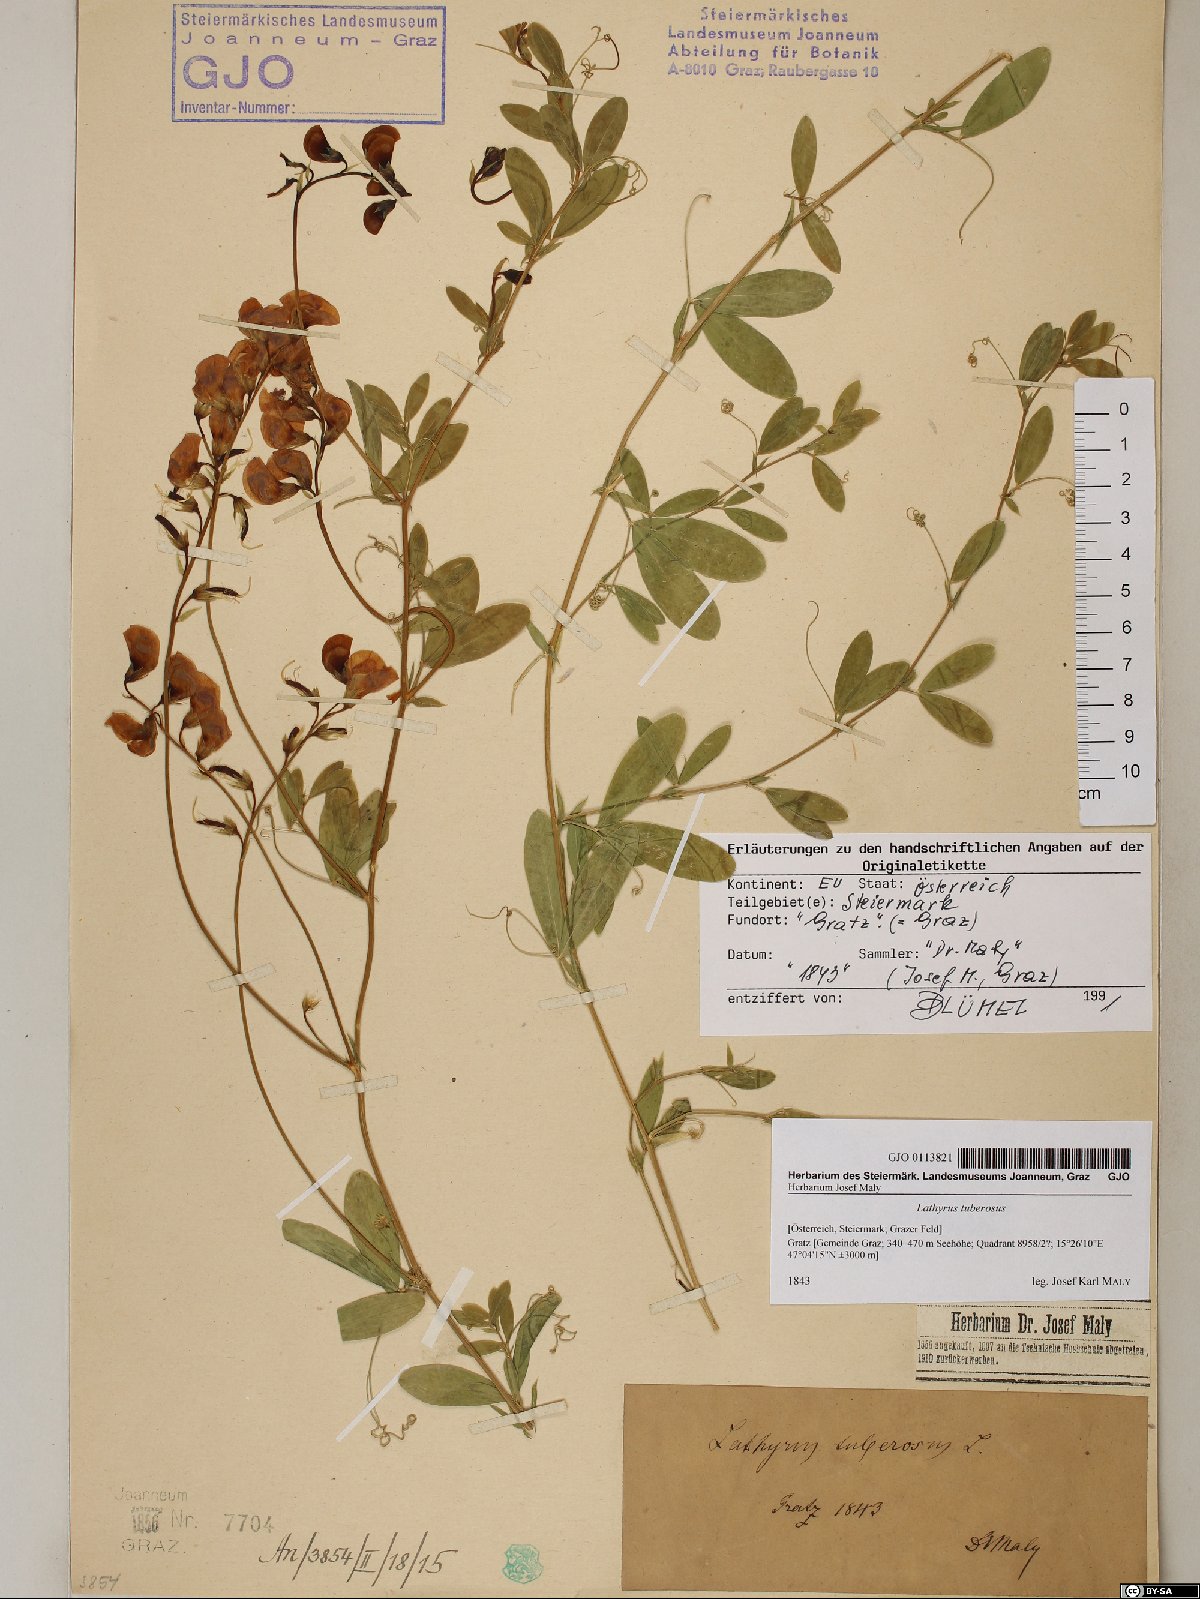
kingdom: Plantae
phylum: Tracheophyta
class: Magnoliopsida
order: Fabales
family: Fabaceae
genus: Lathyrus
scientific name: Lathyrus tuberosus
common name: Tuberous pea
